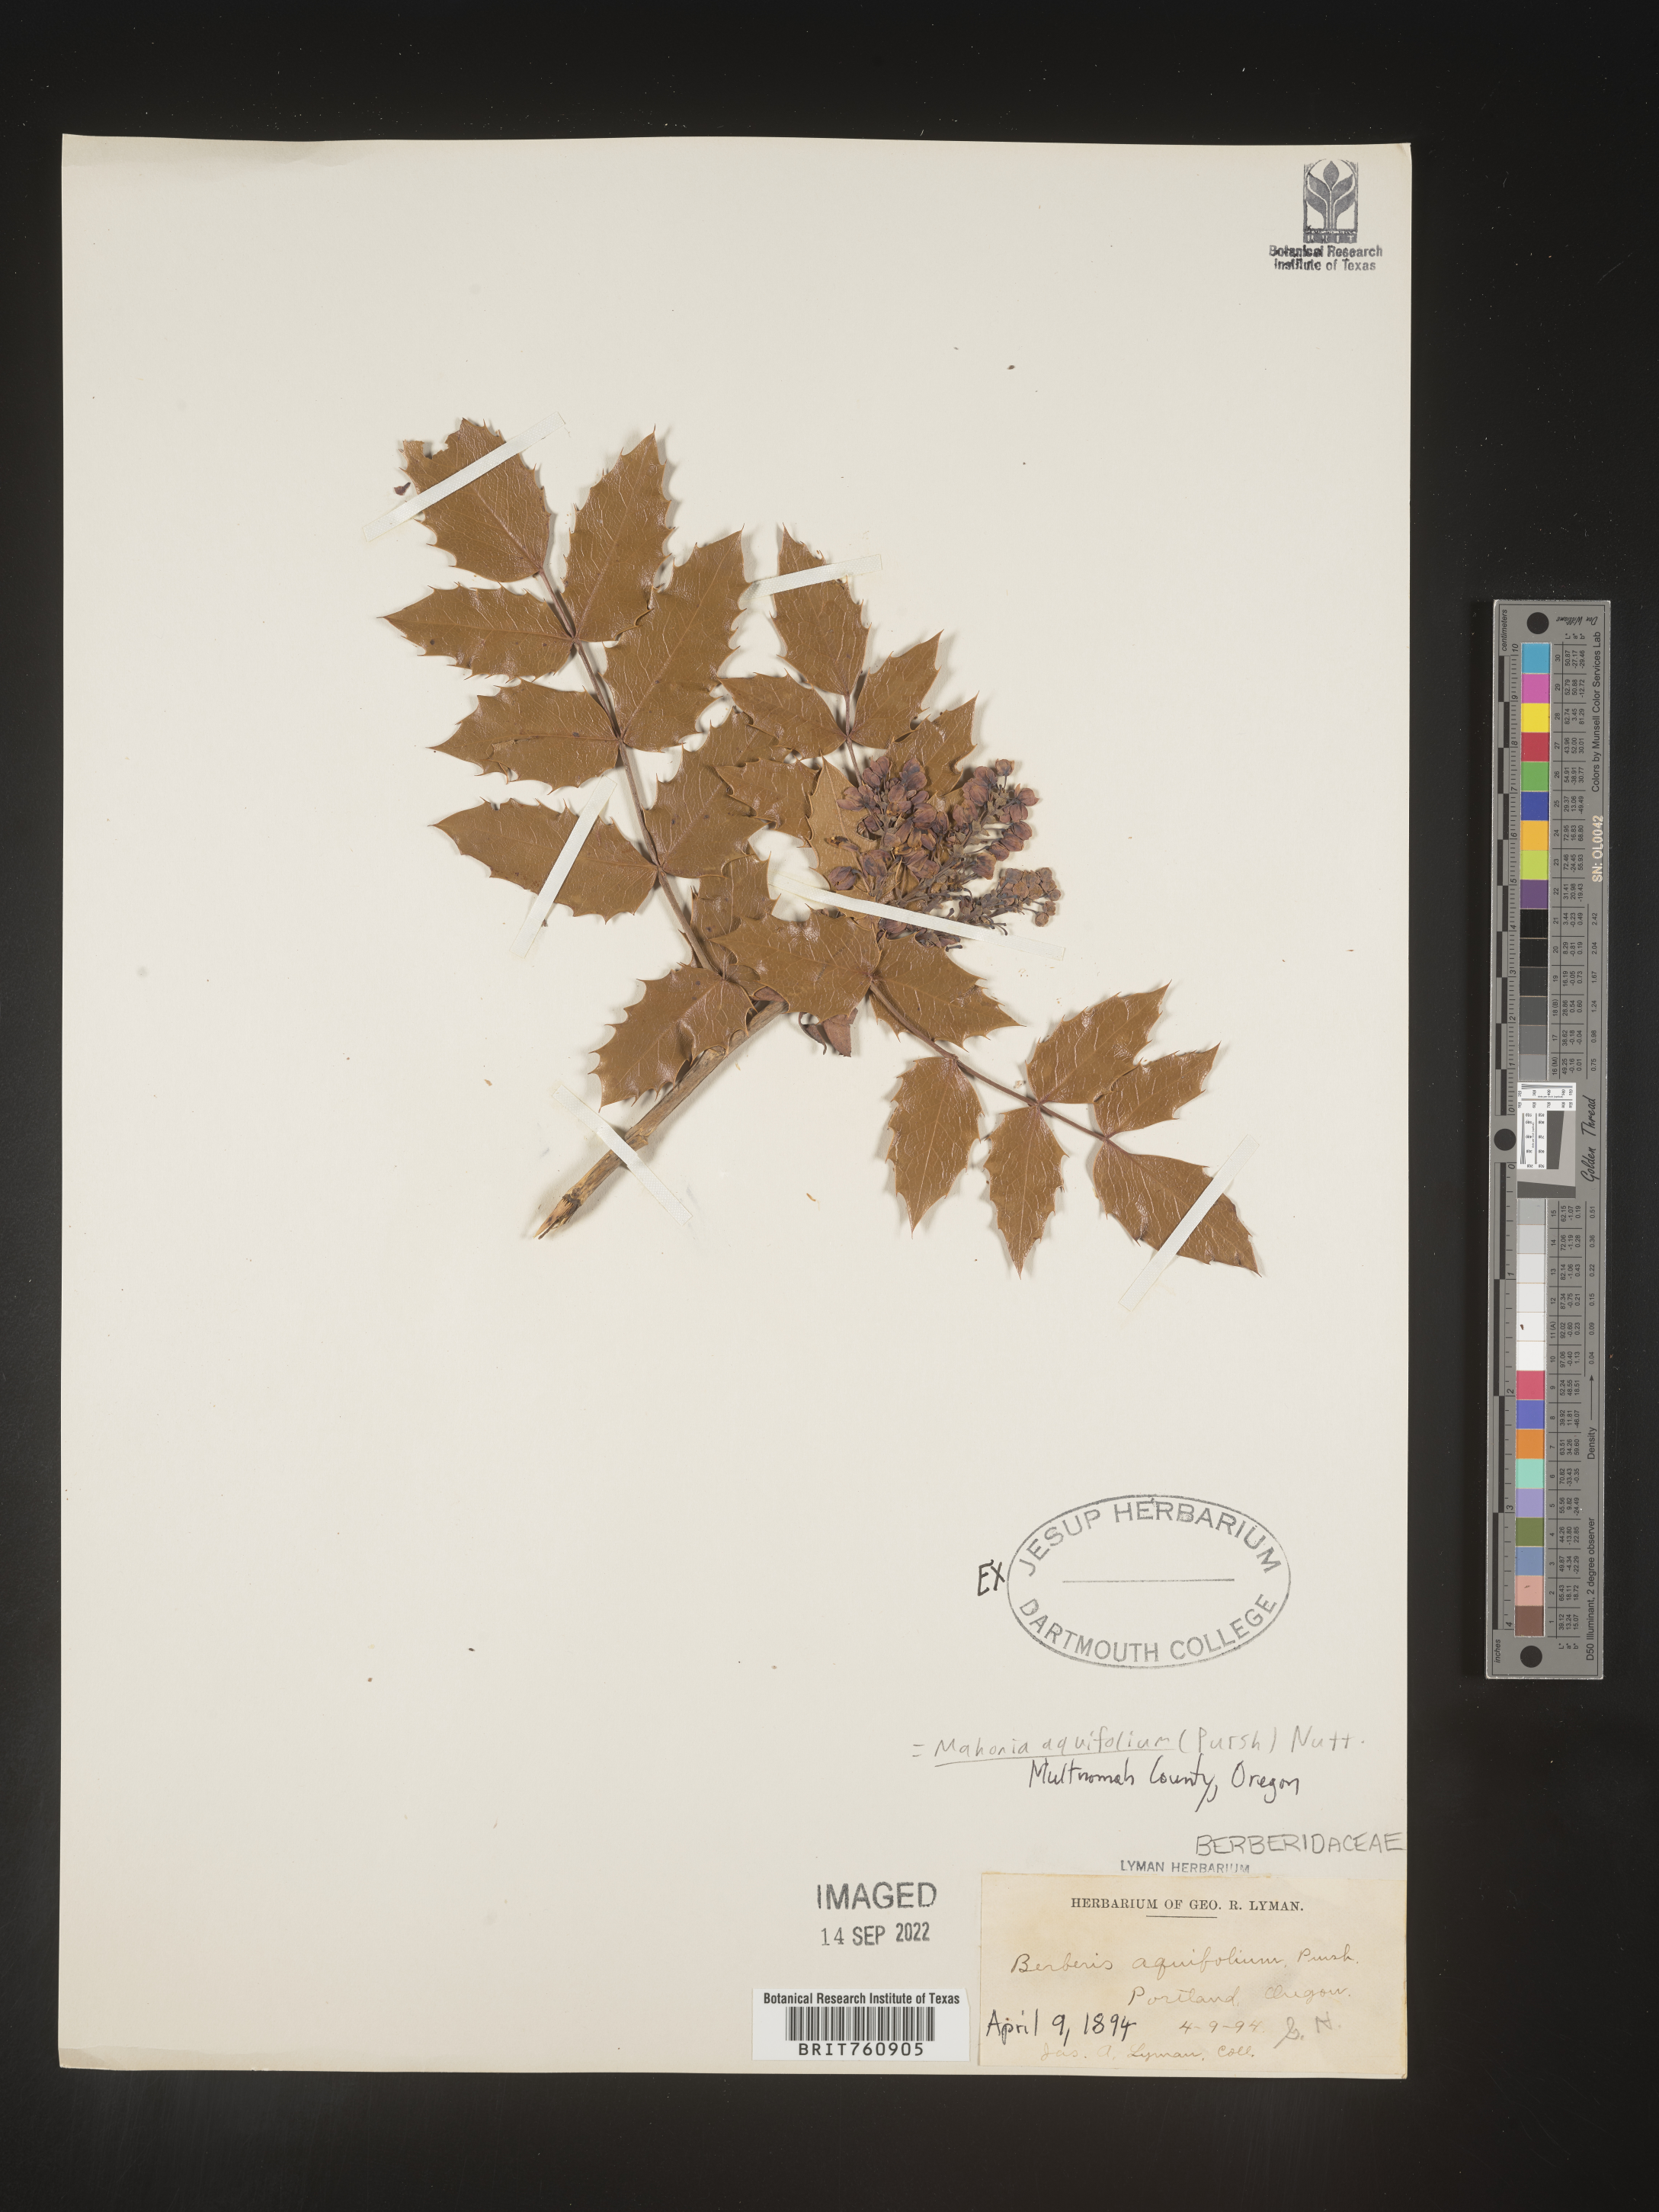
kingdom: Plantae
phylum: Tracheophyta
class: Magnoliopsida
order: Ranunculales
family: Berberidaceae
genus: Mahonia
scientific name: Mahonia aquifolium
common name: Oregon-grape
